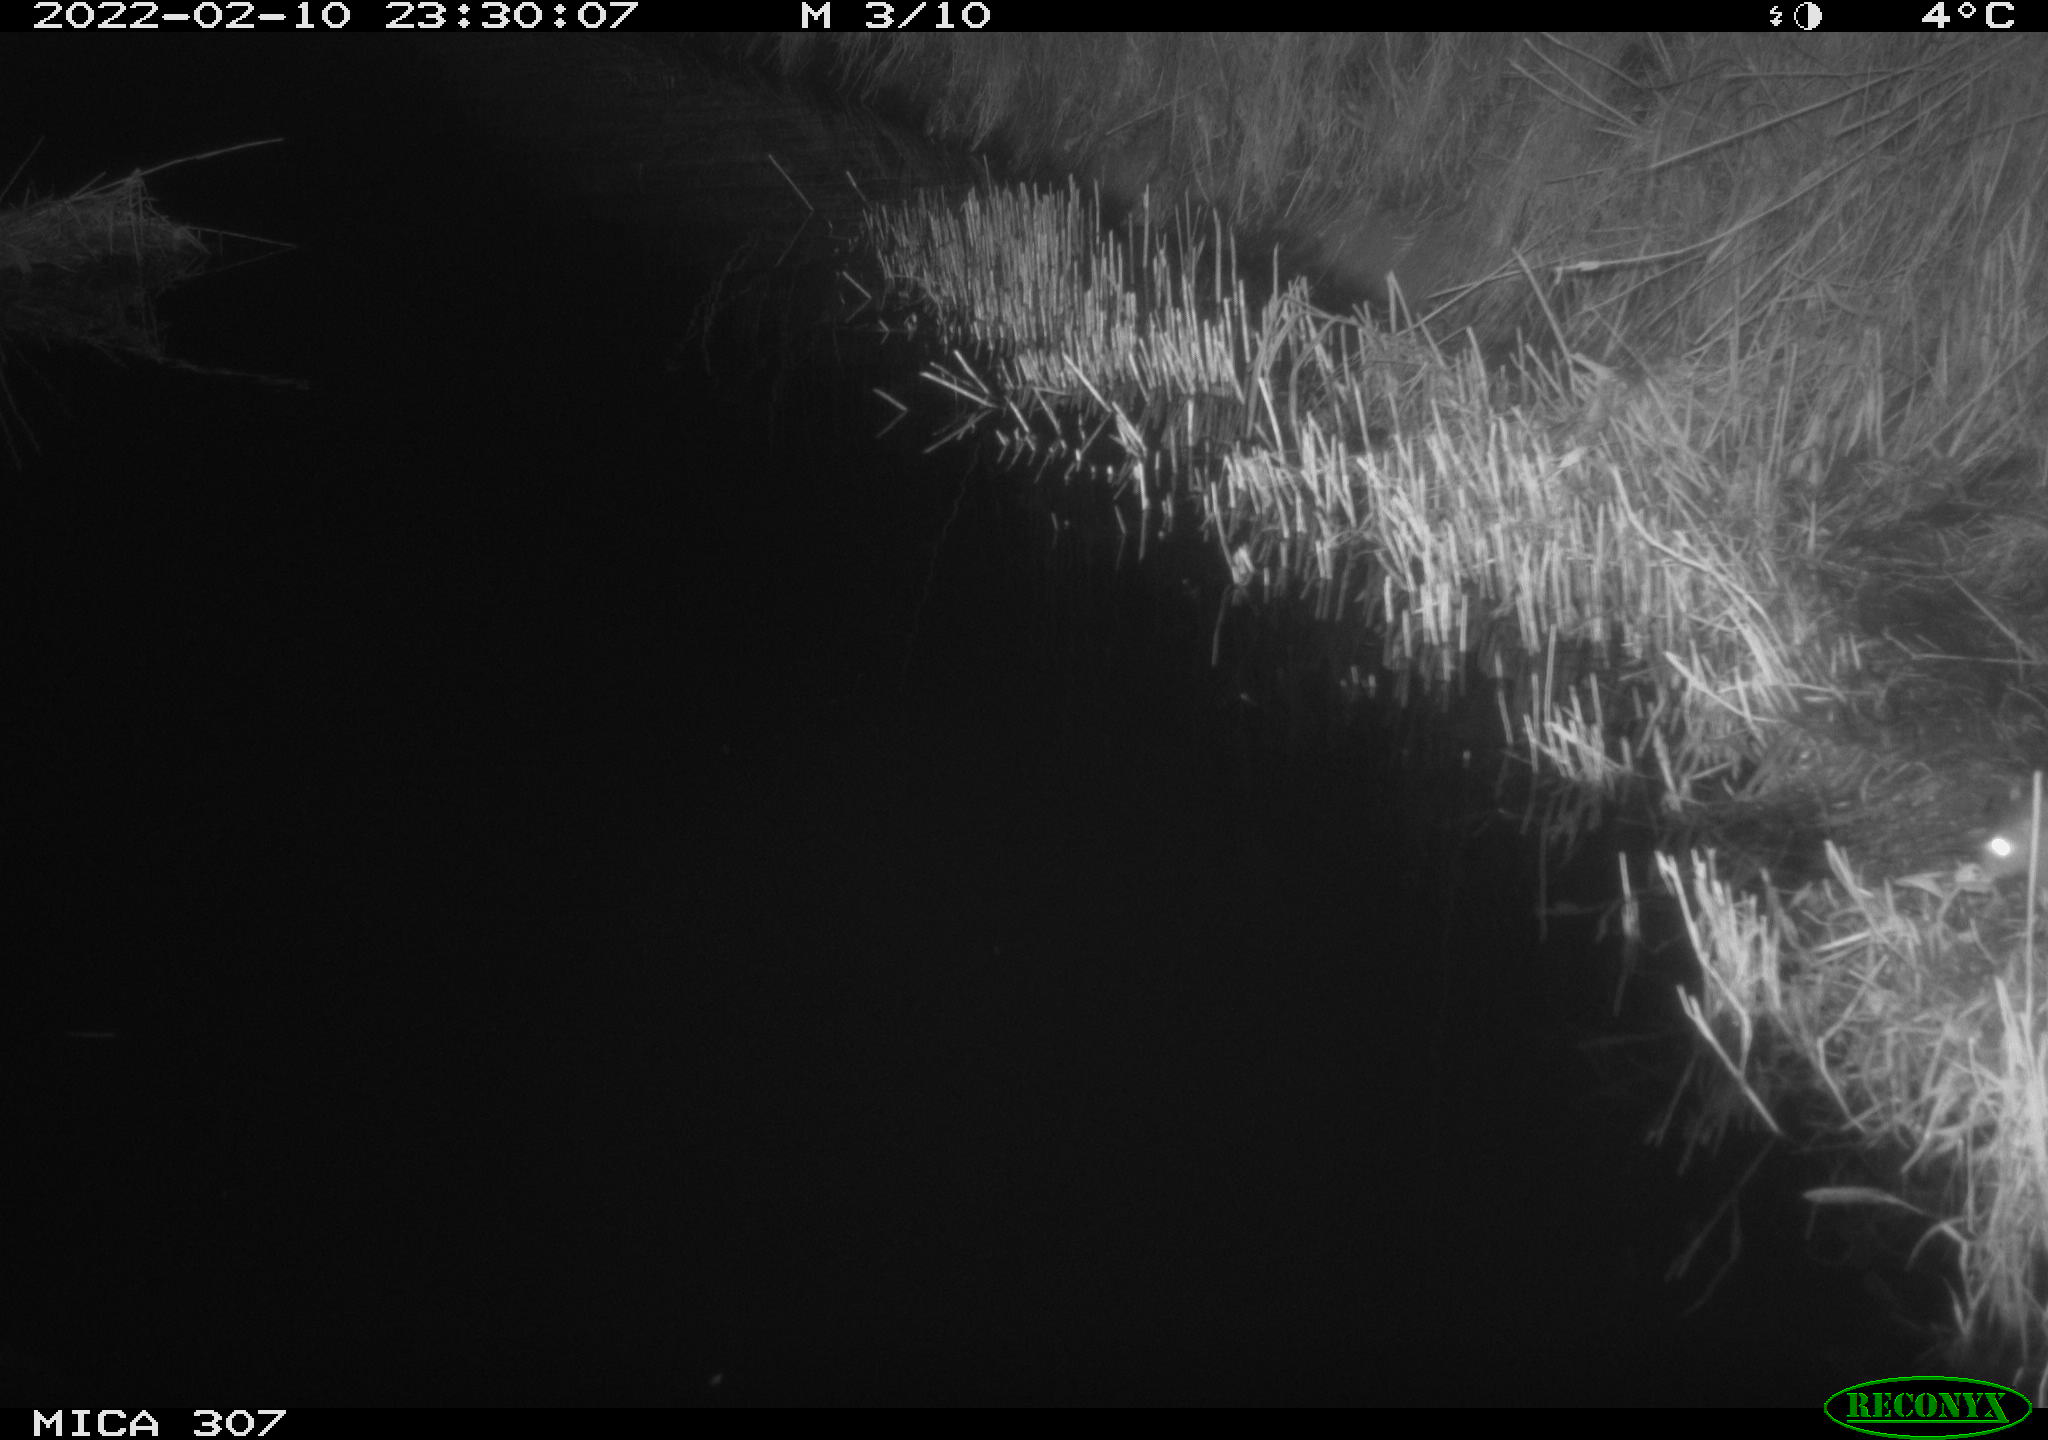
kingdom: Animalia
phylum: Chordata
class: Mammalia
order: Rodentia
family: Muridae
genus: Rattus
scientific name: Rattus norvegicus
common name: Brown rat
